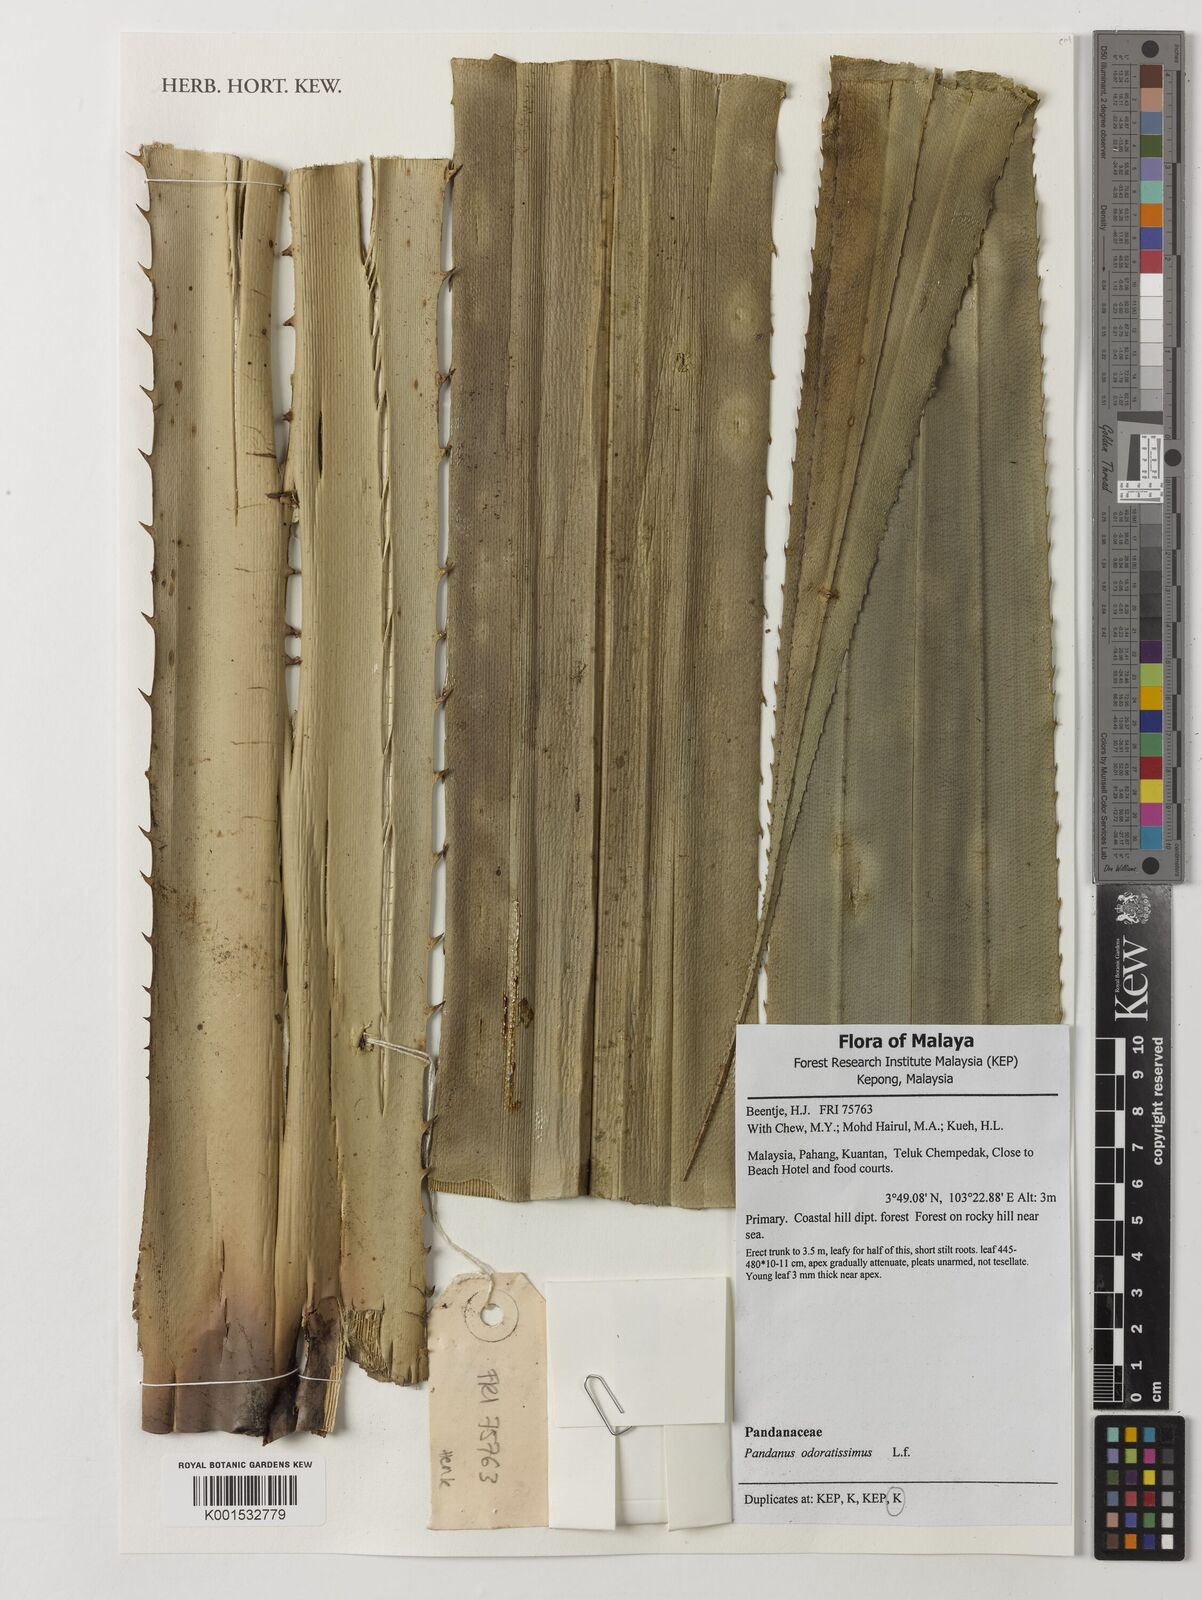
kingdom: Plantae
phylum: Tracheophyta
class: Liliopsida
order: Pandanales
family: Pandanaceae
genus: Pandanus
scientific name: Pandanus odorifer
